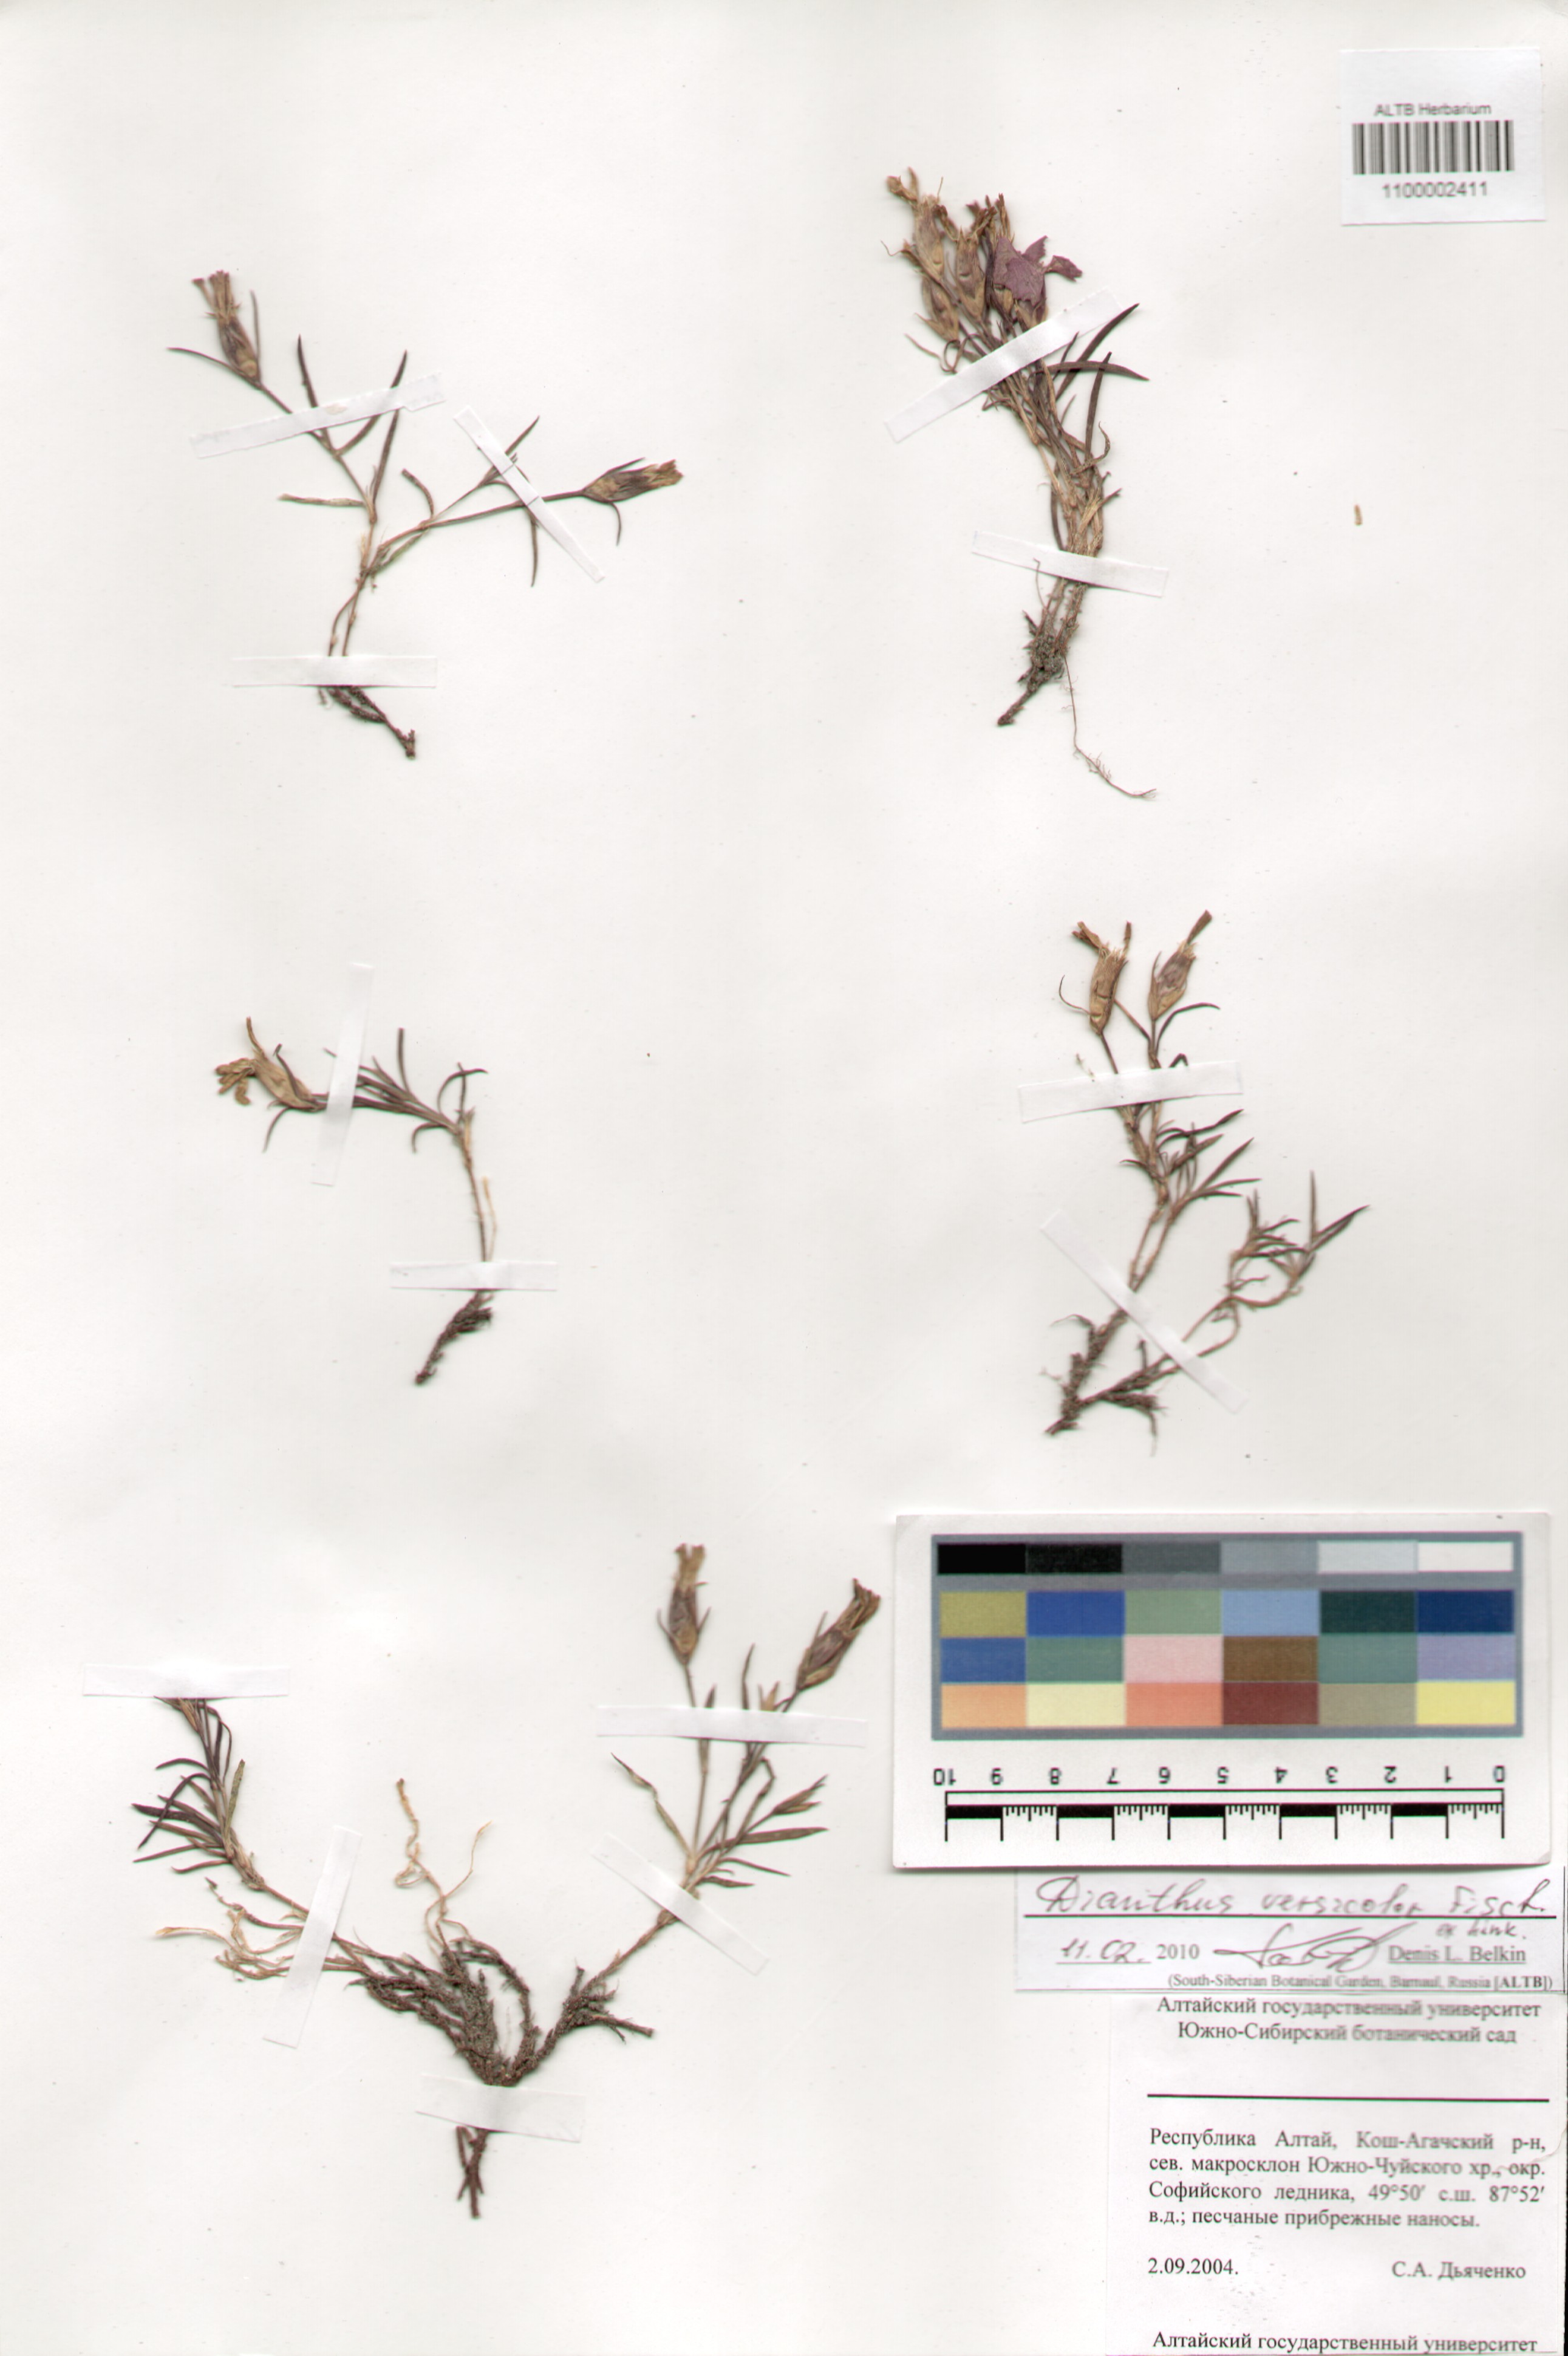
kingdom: Plantae
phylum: Tracheophyta
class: Magnoliopsida
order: Caryophyllales
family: Caryophyllaceae
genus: Dianthus
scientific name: Dianthus chinensis
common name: Rainbow pink
